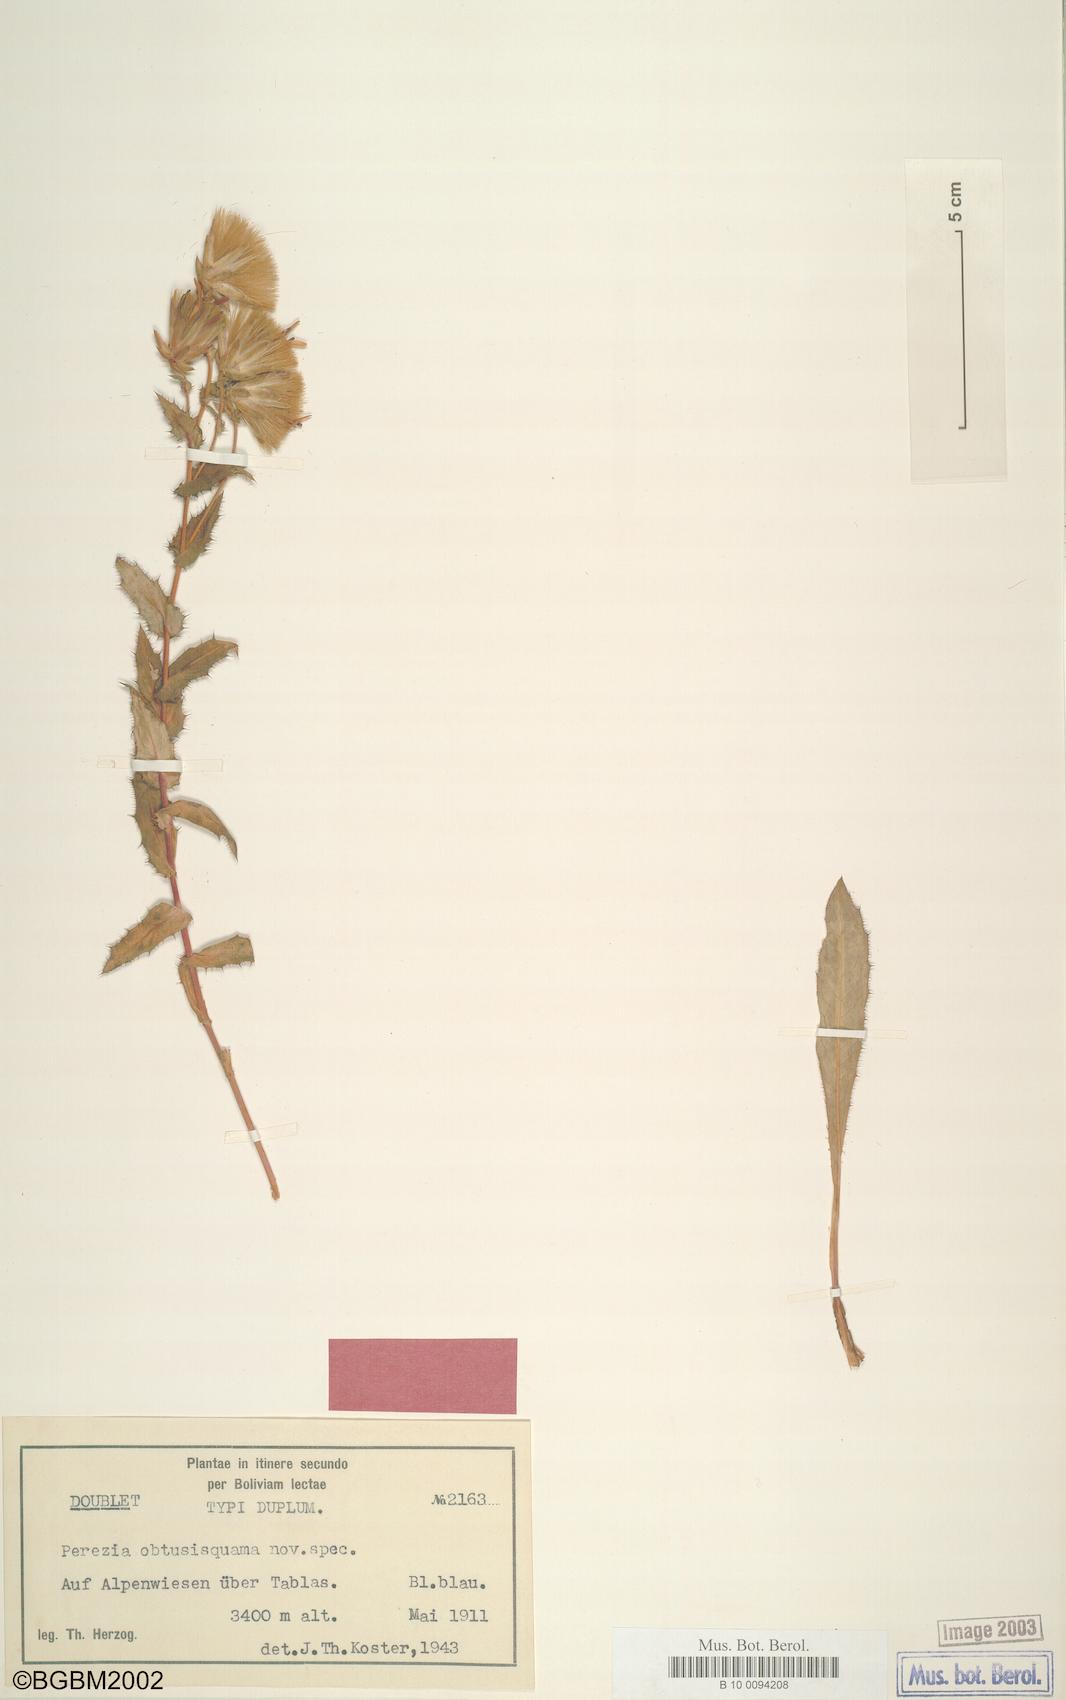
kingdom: Plantae
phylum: Tracheophyta
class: Magnoliopsida
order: Asterales
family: Asteraceae
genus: Perezia
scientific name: Perezia pungens
